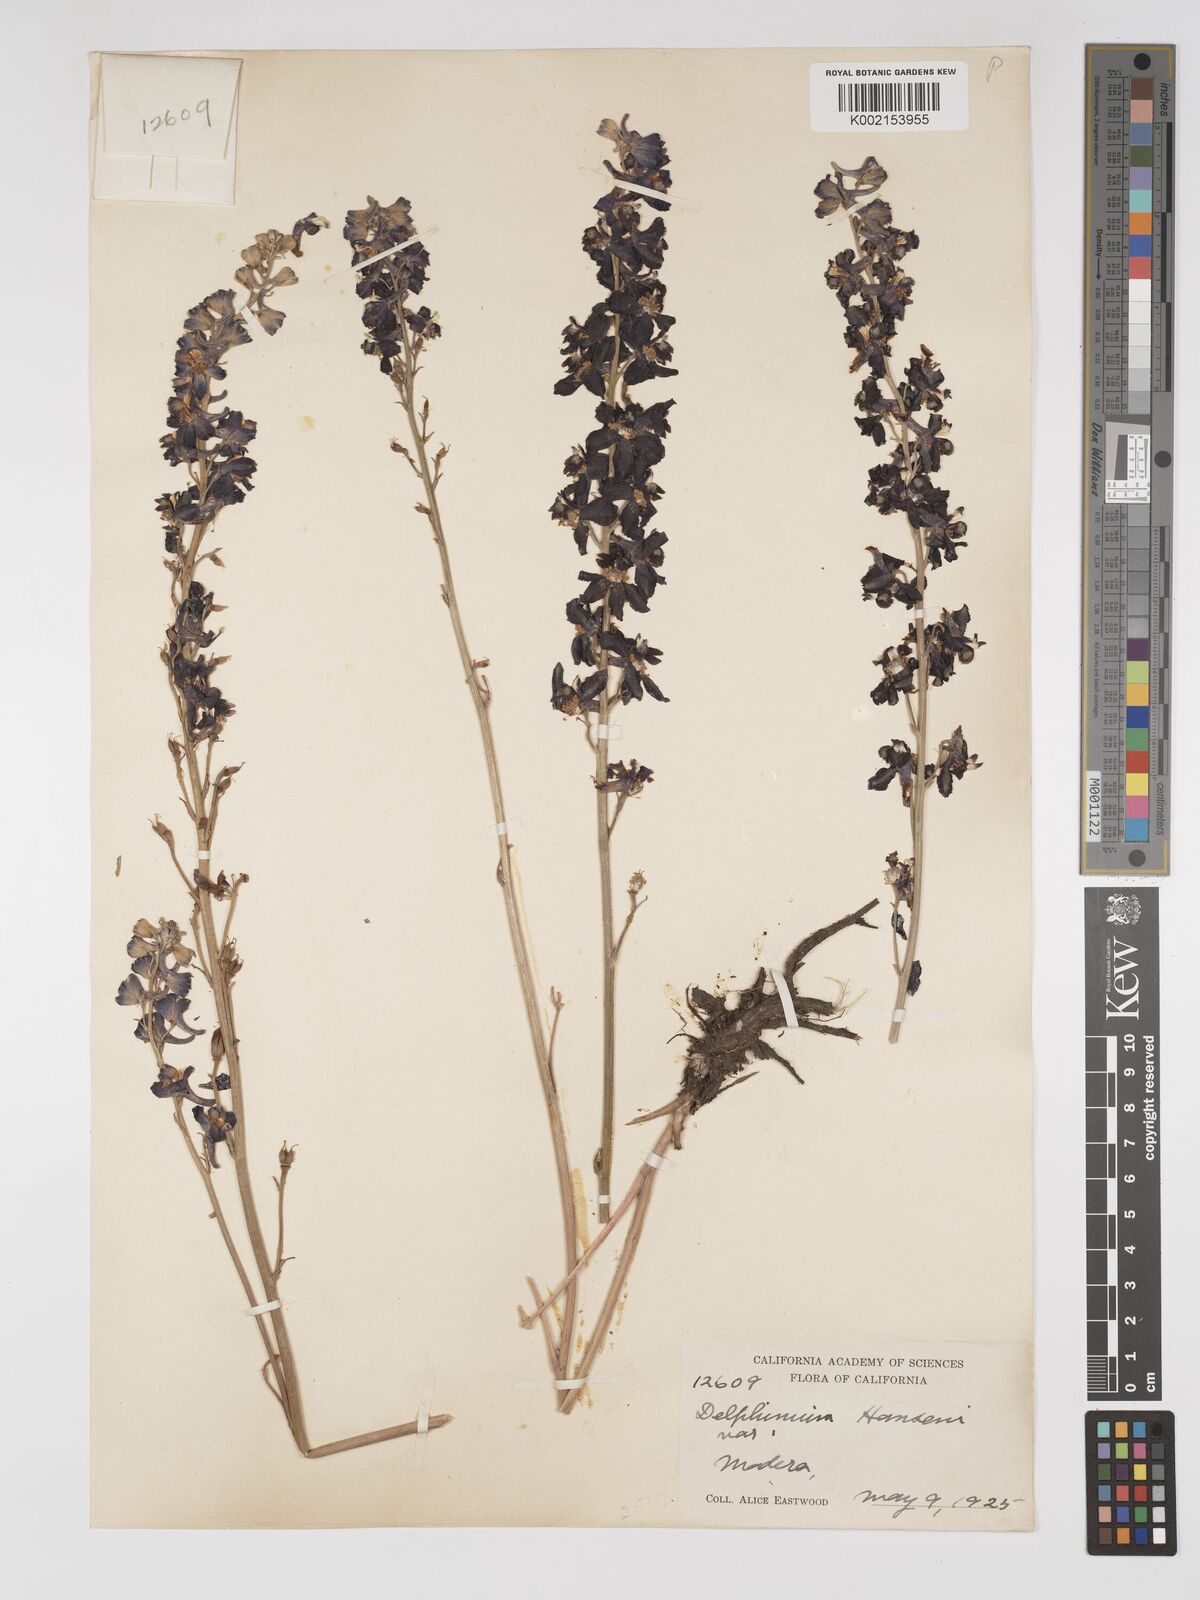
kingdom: Plantae
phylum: Tracheophyta
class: Magnoliopsida
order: Ranunculales
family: Ranunculaceae
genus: Delphinium
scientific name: Delphinium hansenii
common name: Hansen's larkspur
